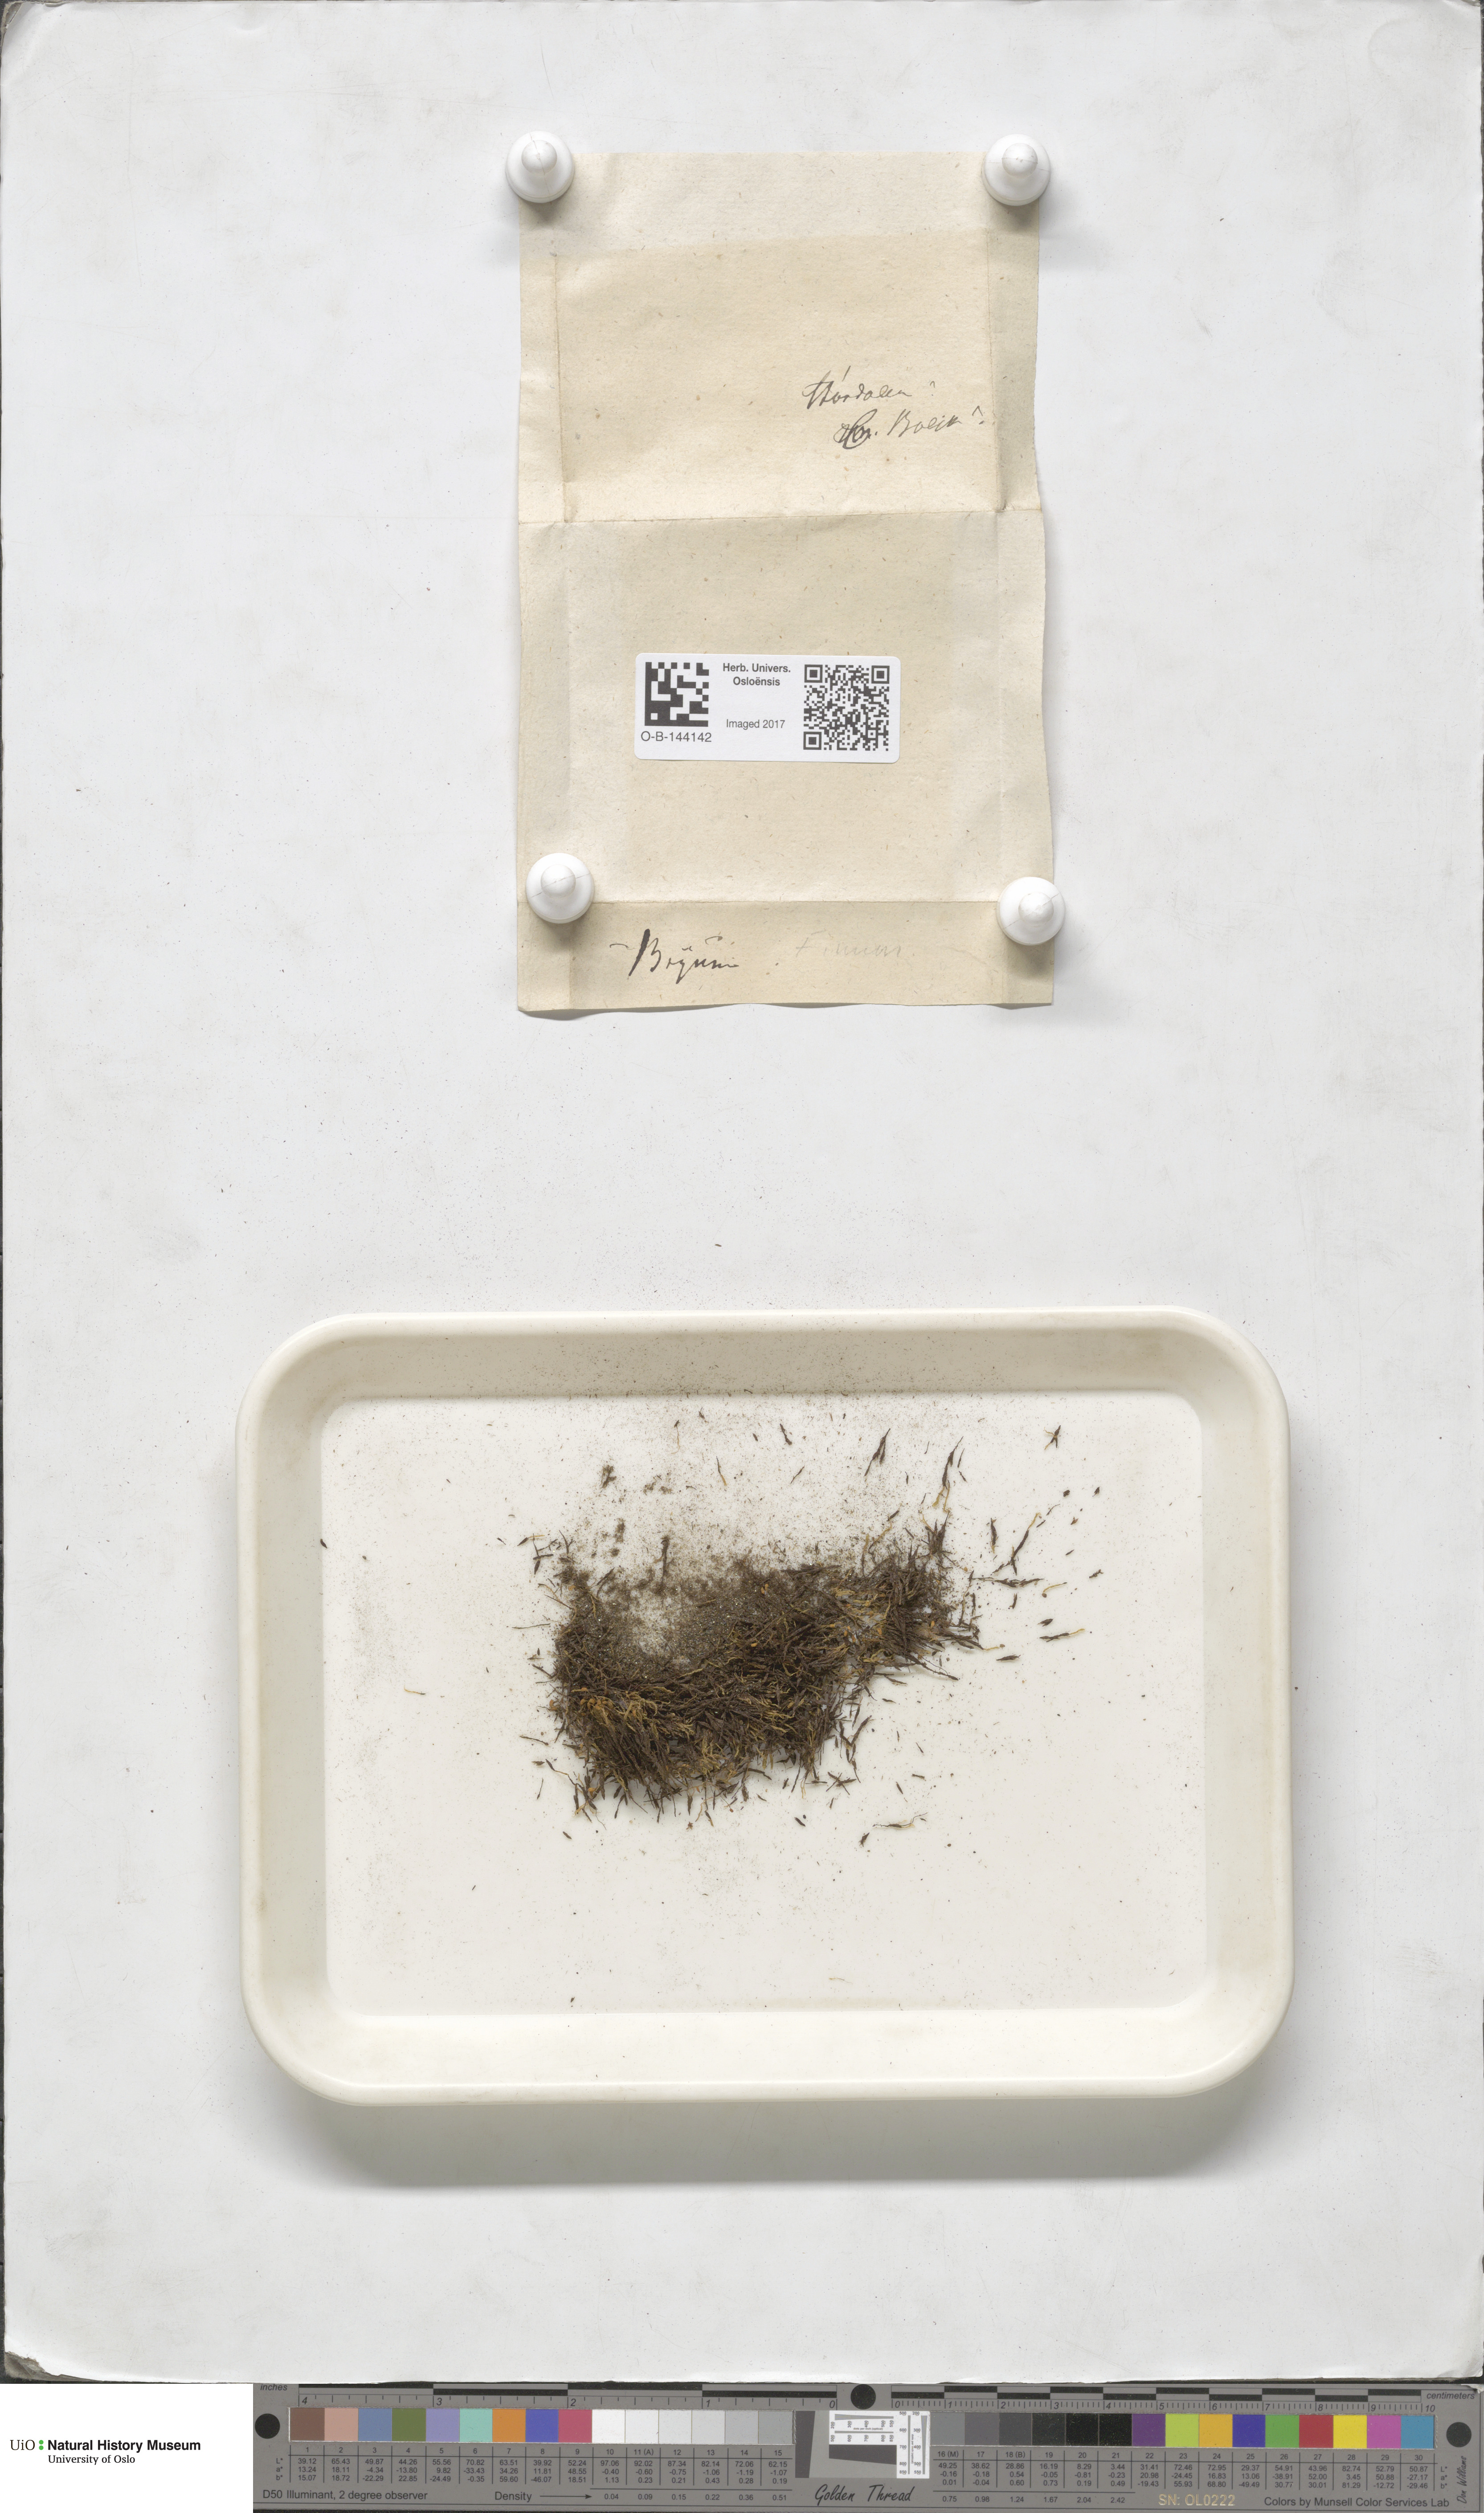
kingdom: Plantae
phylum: Bryophyta
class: Bryopsida
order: Bryales
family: Bryaceae
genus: Bryum
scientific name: Bryum
